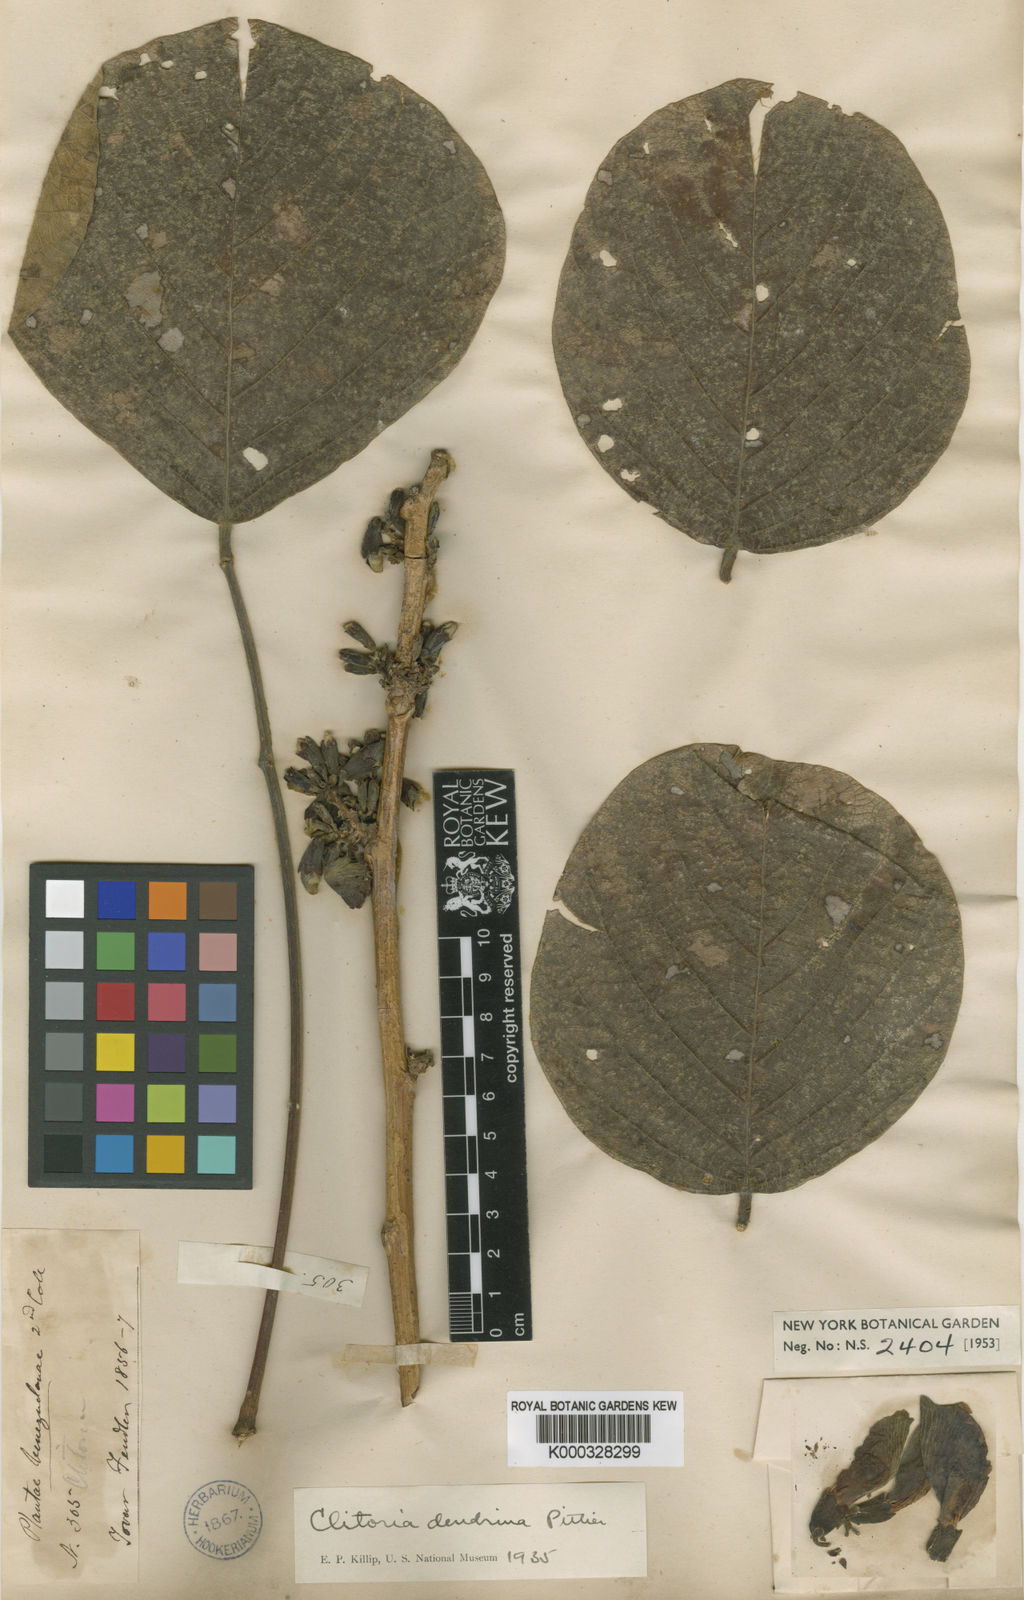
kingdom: Plantae
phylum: Tracheophyta
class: Magnoliopsida
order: Fabales
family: Fabaceae
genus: Clitoria
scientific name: Clitoria dendrina
